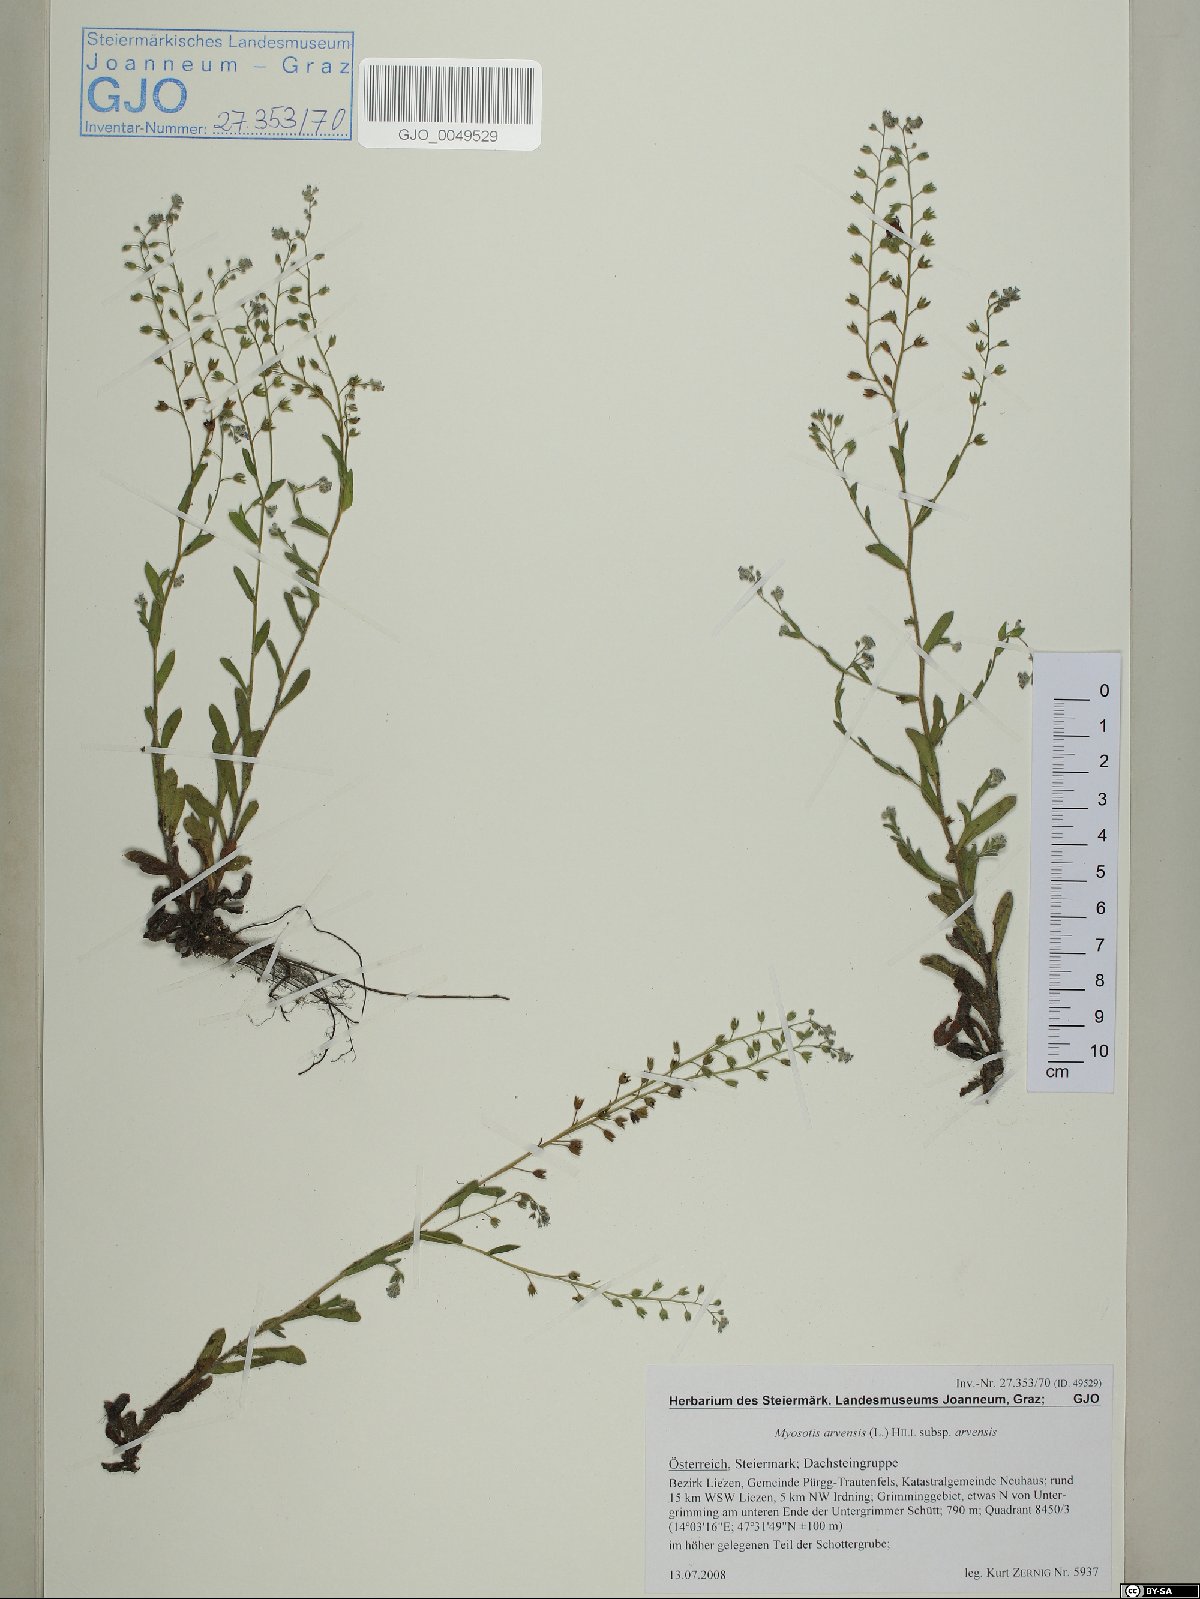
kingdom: Plantae
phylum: Tracheophyta
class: Magnoliopsida
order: Boraginales
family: Boraginaceae
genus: Myosotis
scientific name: Myosotis arvensis
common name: Field forget-me-not
